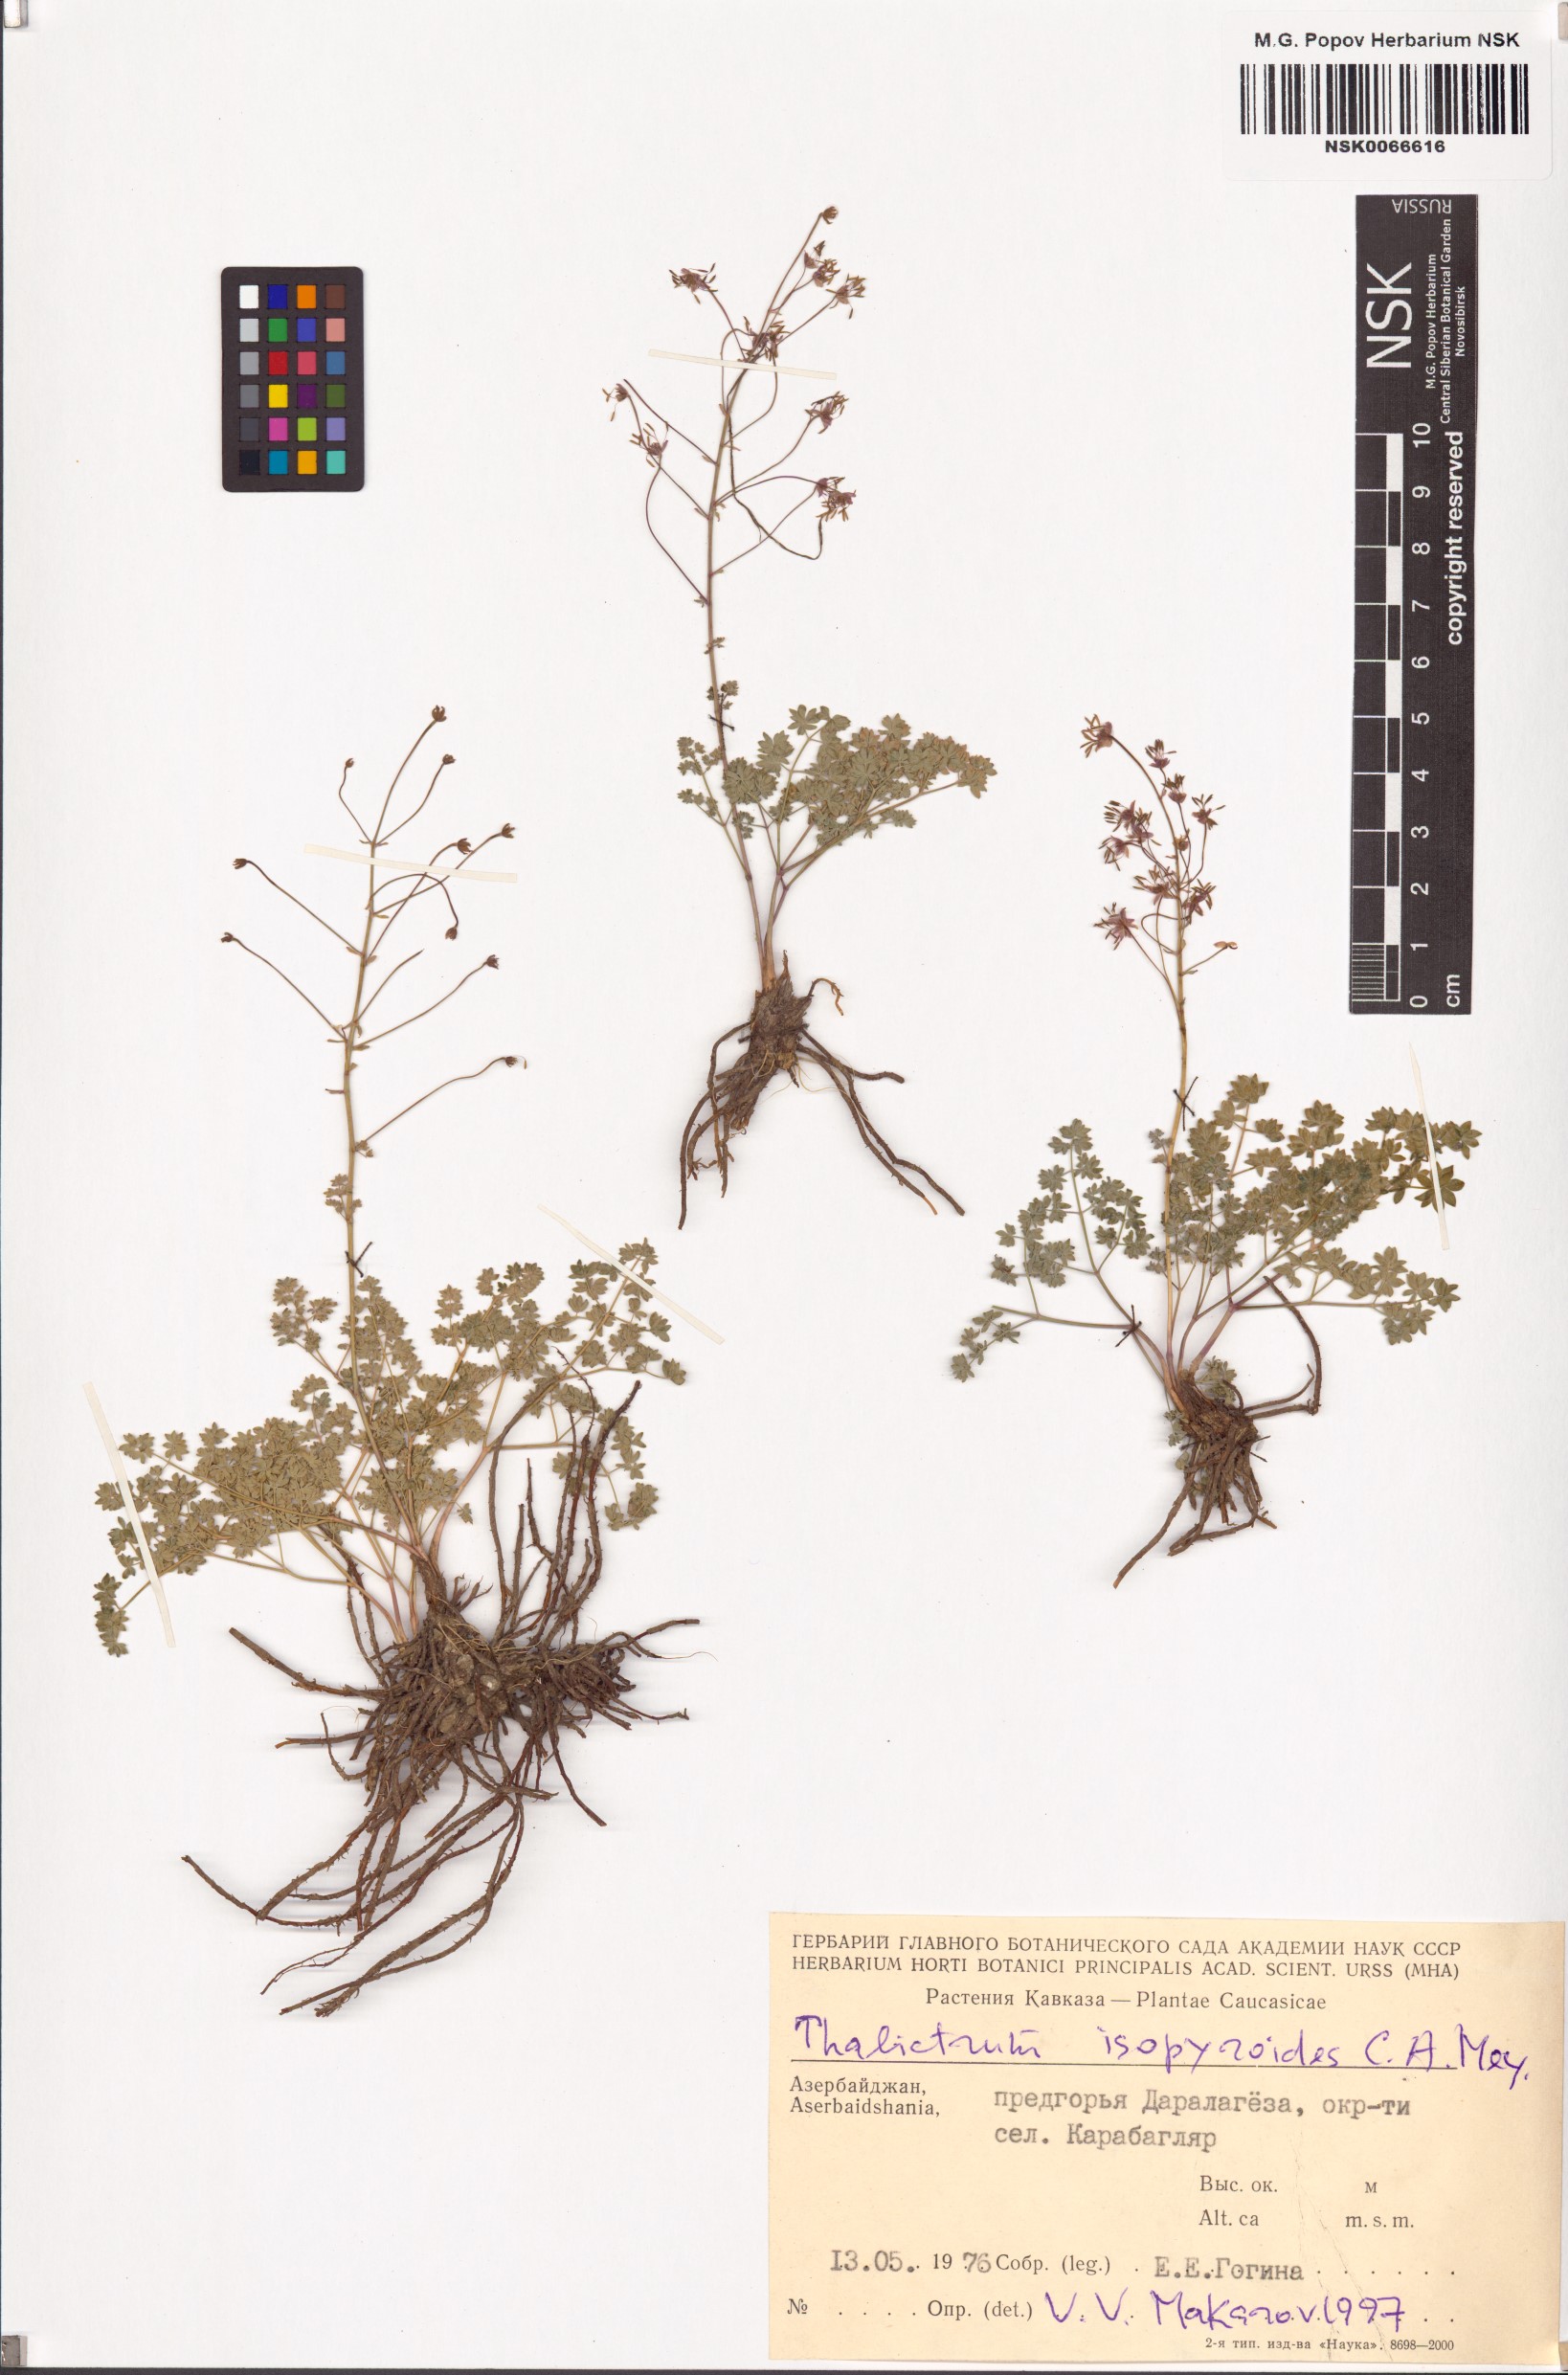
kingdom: Plantae
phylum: Tracheophyta
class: Magnoliopsida
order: Ranunculales
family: Ranunculaceae
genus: Thalictrum
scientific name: Thalictrum isopyroides
